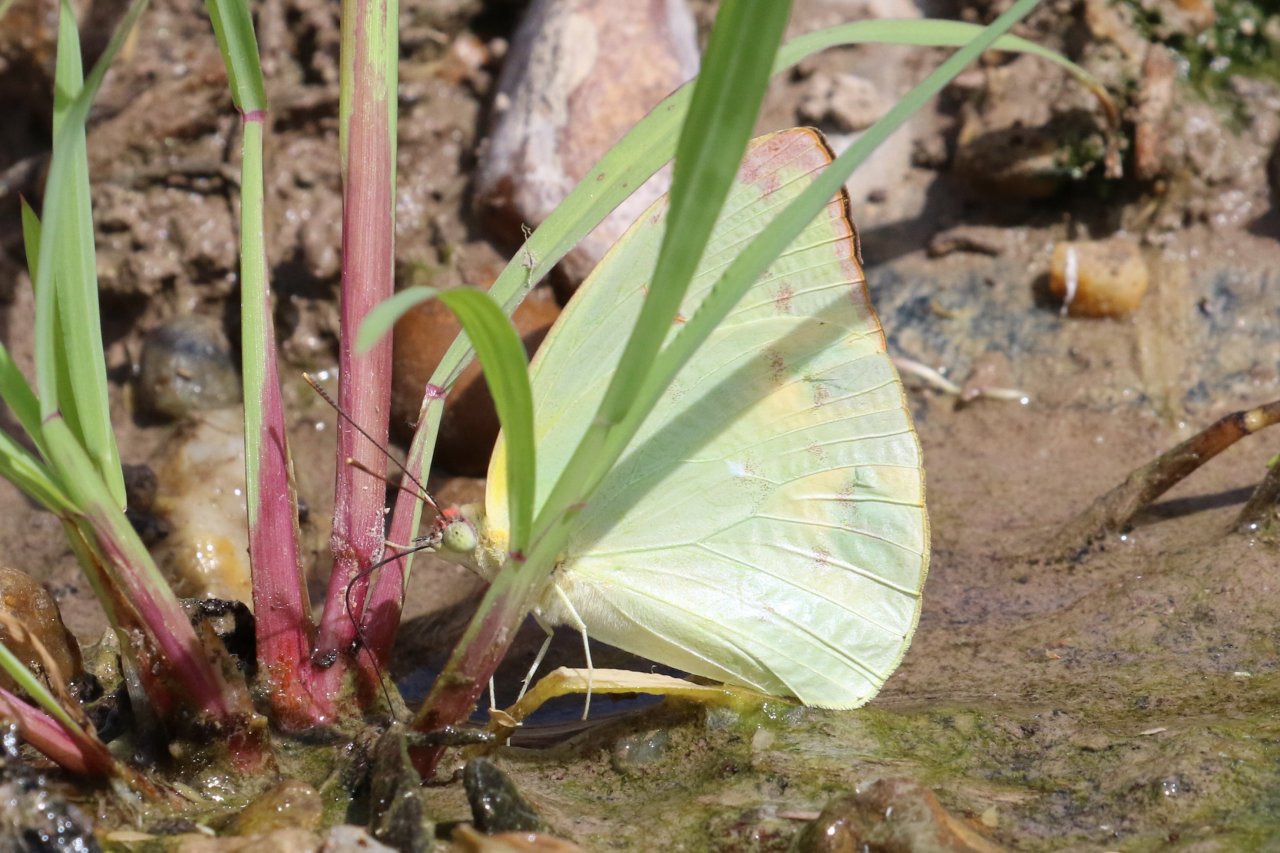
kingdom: Animalia
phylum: Arthropoda
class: Insecta
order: Lepidoptera
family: Pieridae
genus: Aphrissa
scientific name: Aphrissa statira
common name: Statira Sulphur
